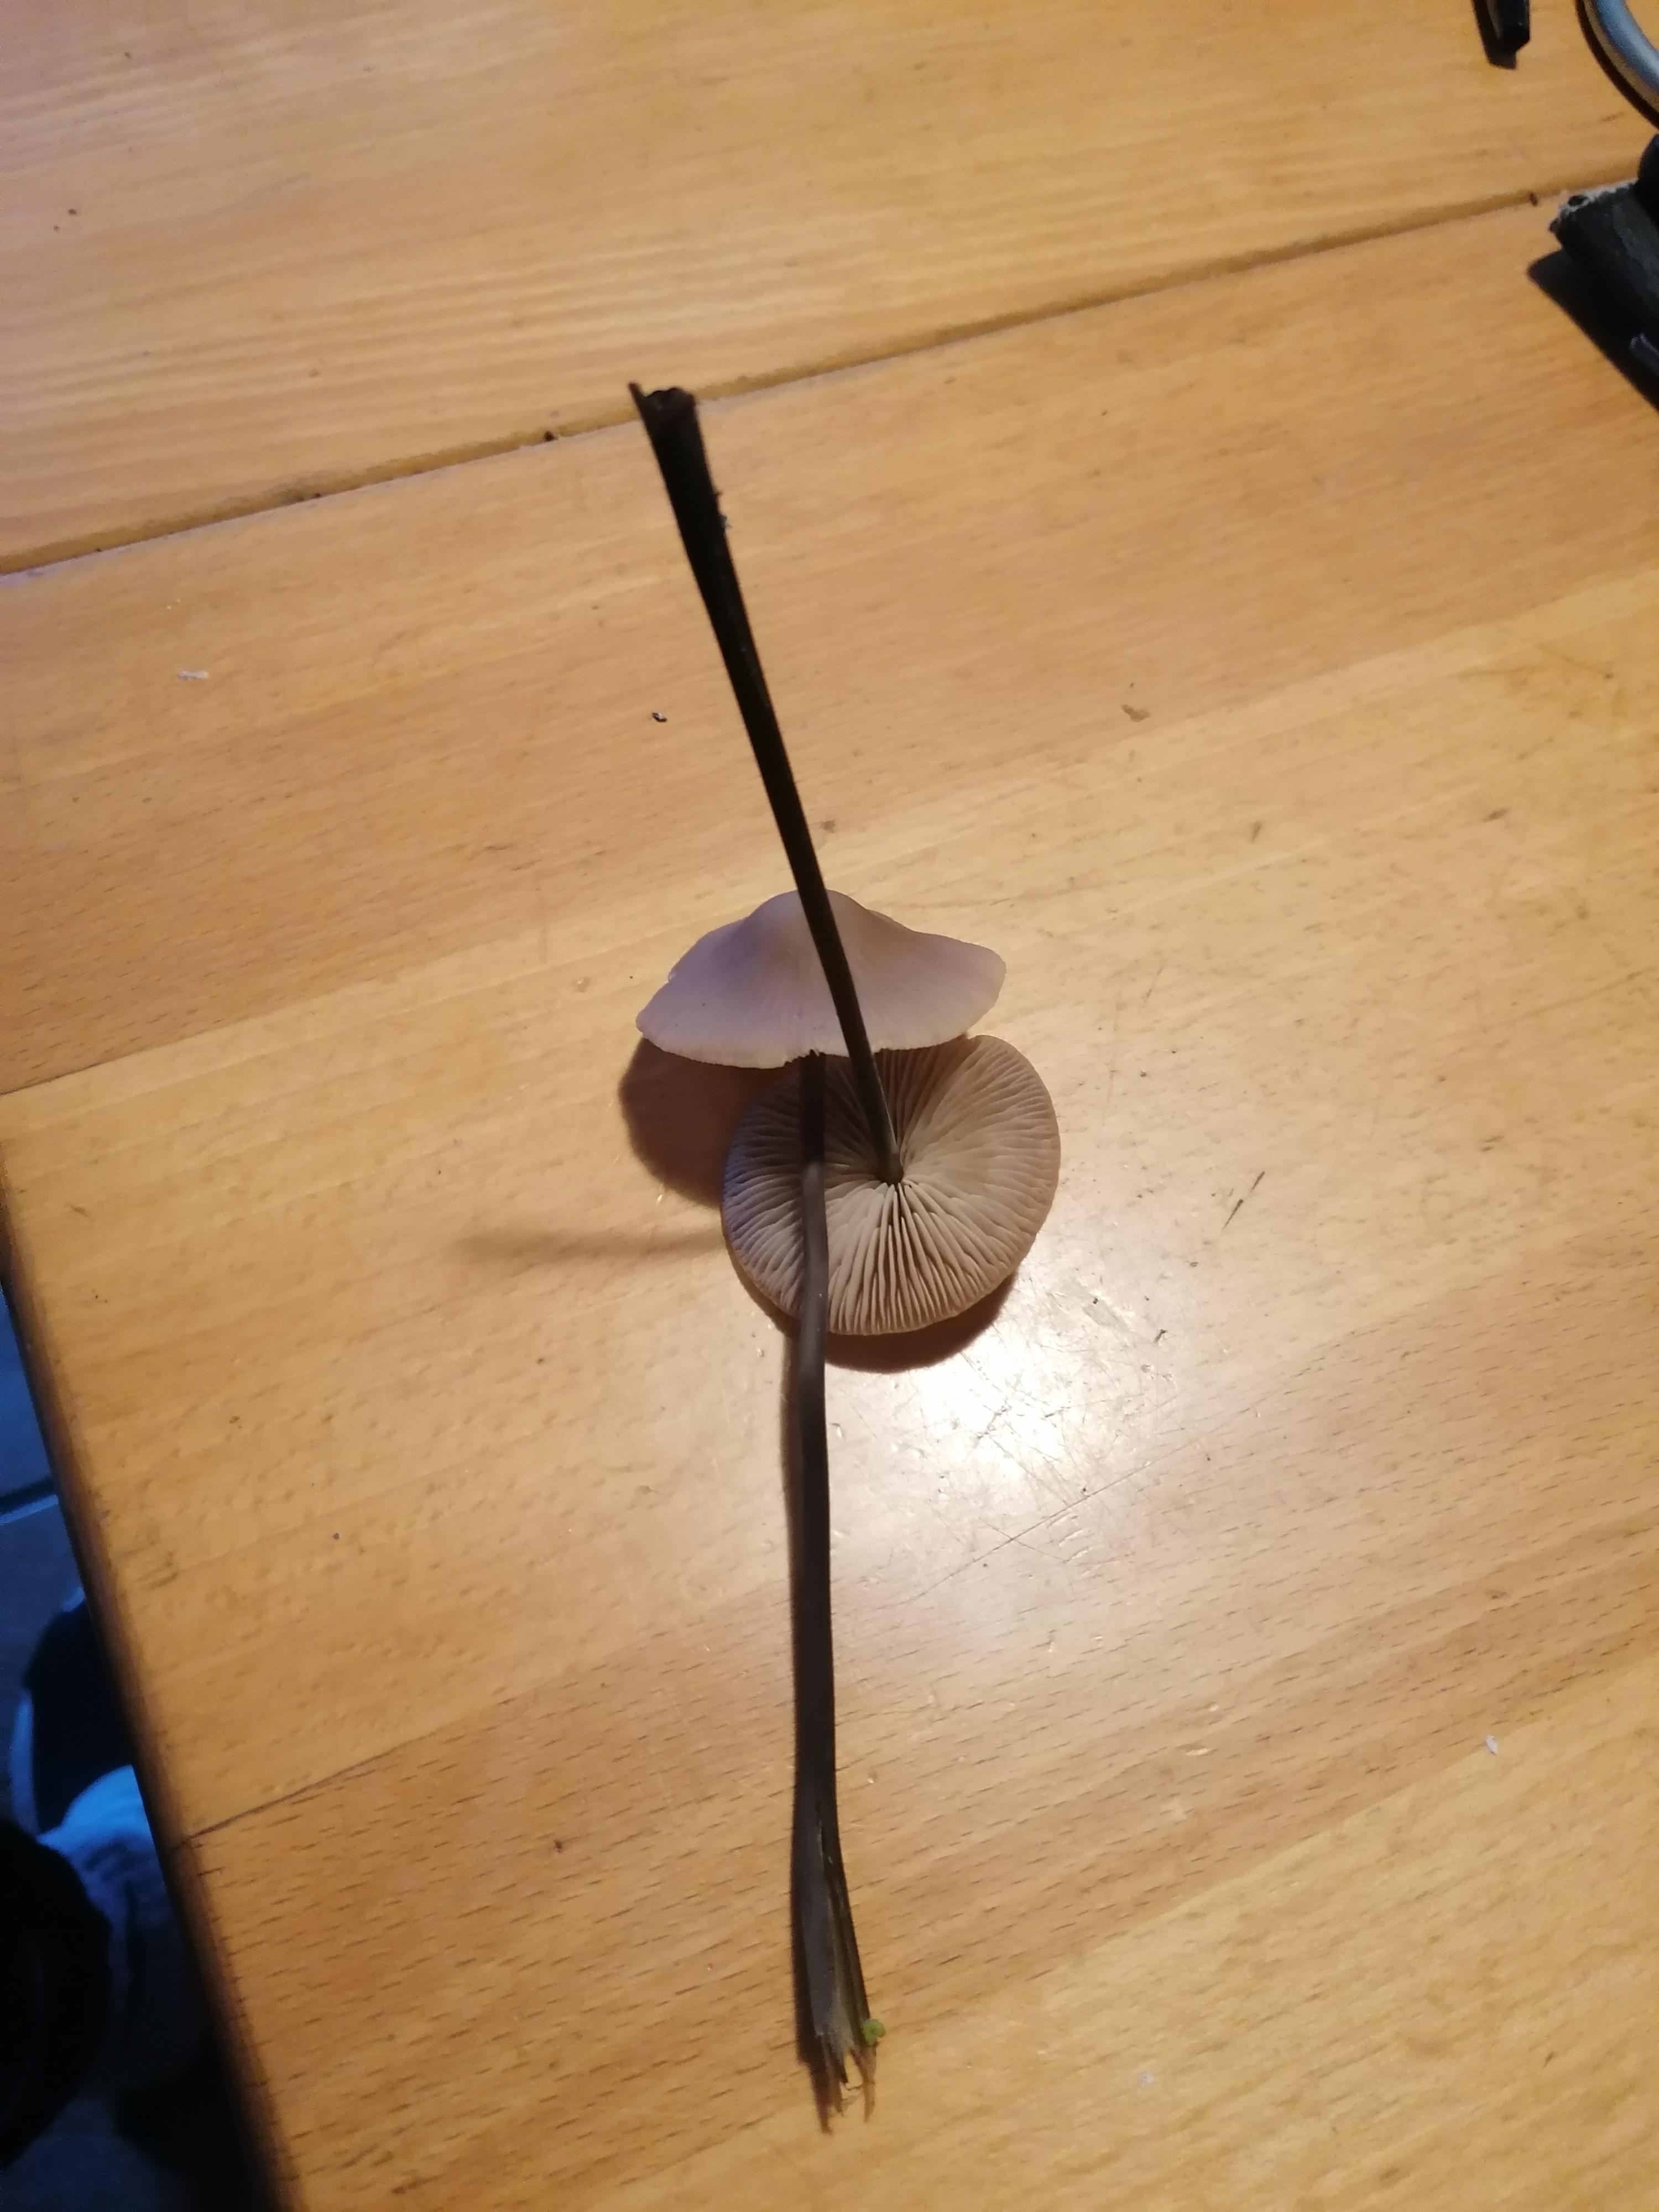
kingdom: Fungi
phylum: Basidiomycota
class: Agaricomycetes
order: Agaricales
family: Omphalotaceae
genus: Mycetinis
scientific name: Mycetinis alliaceus
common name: stor løghat
